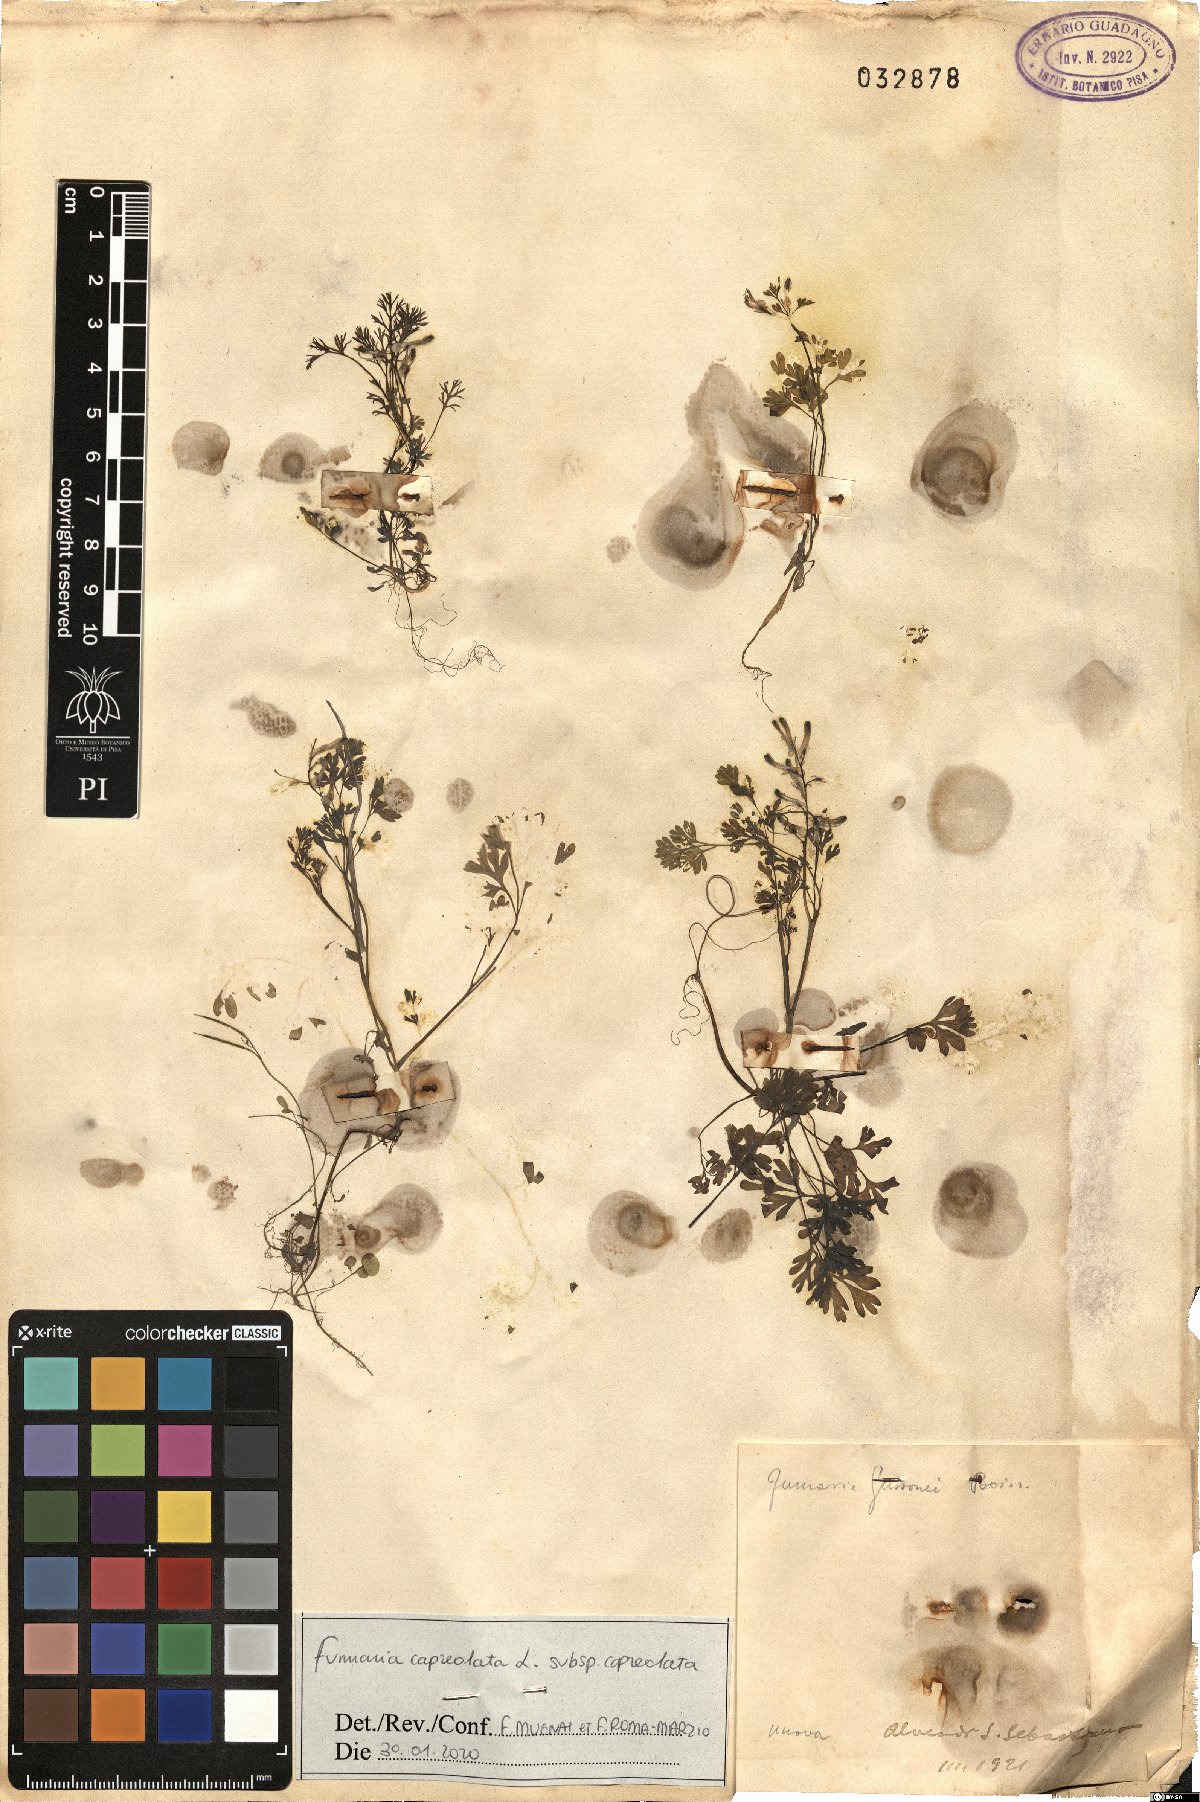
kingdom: Plantae
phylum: Tracheophyta
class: Magnoliopsida
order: Ranunculales
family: Papaveraceae
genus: Fumaria
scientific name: Fumaria capreolata
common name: White ramping-fumitory
